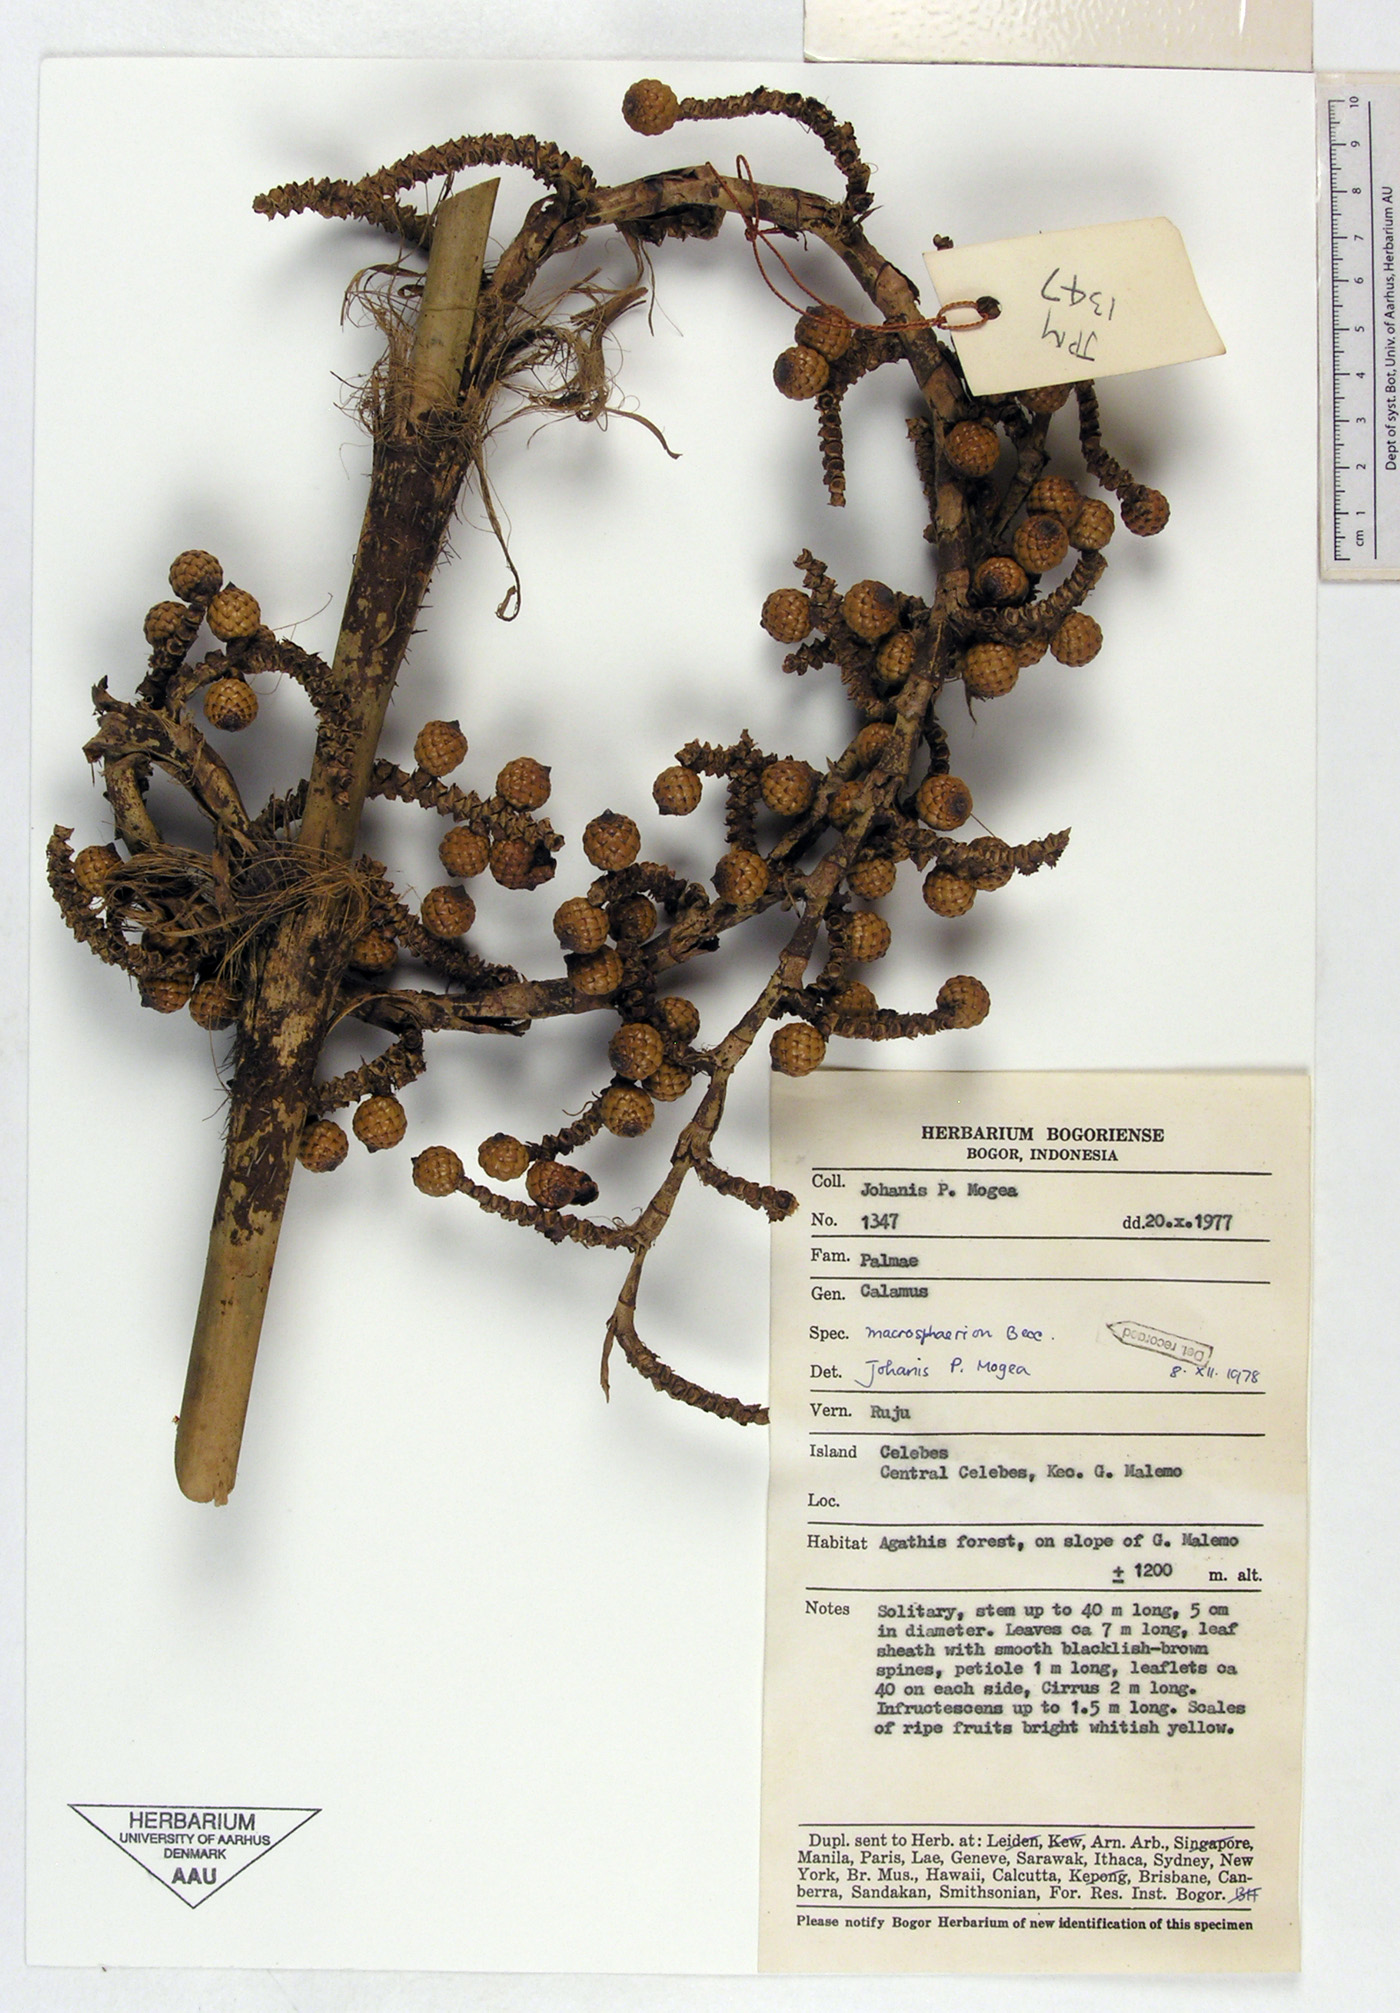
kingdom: Plantae
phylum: Tracheophyta
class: Liliopsida
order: Arecales
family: Arecaceae
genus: Calamus
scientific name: Calamus macrosphaerion
